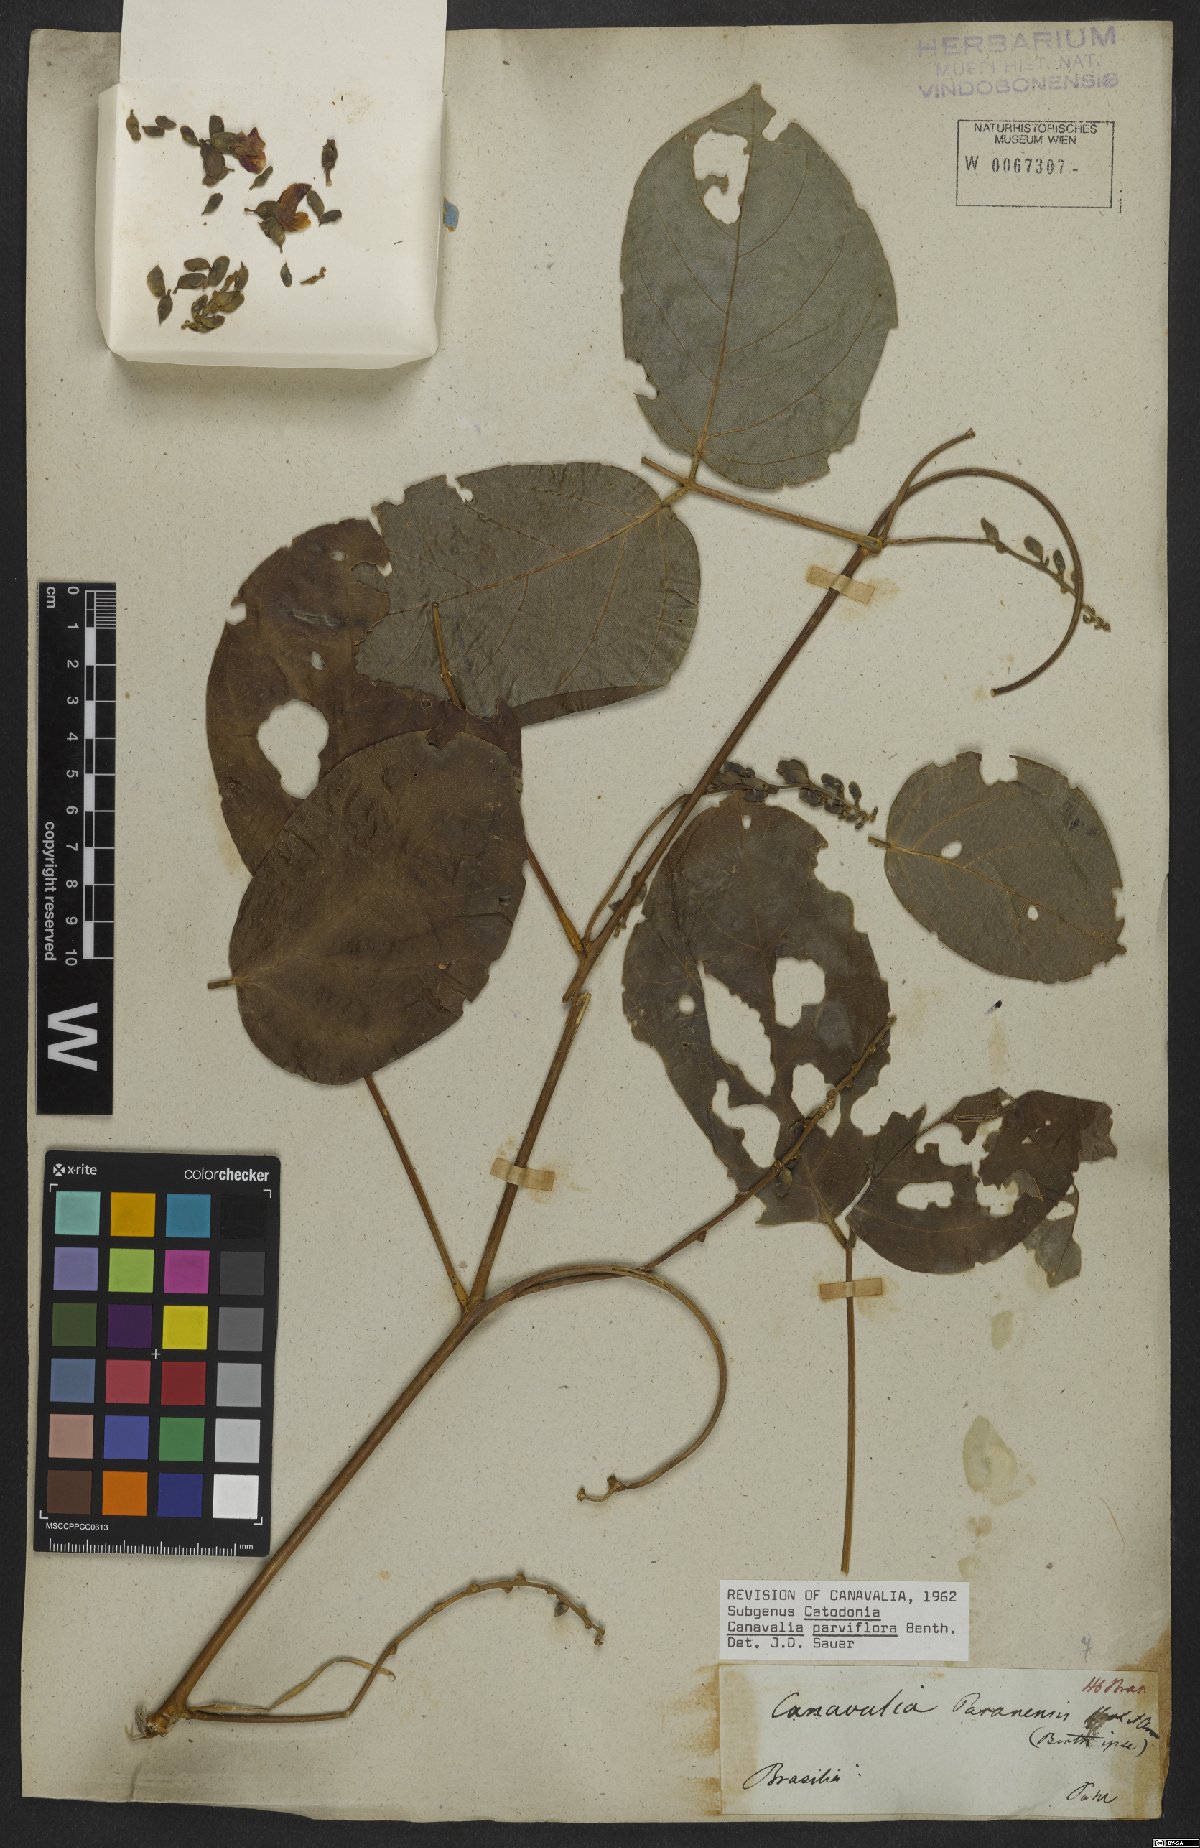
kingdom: Plantae
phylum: Tracheophyta
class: Magnoliopsida
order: Fabales
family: Fabaceae
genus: Canavalia
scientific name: Canavalia parviflora
